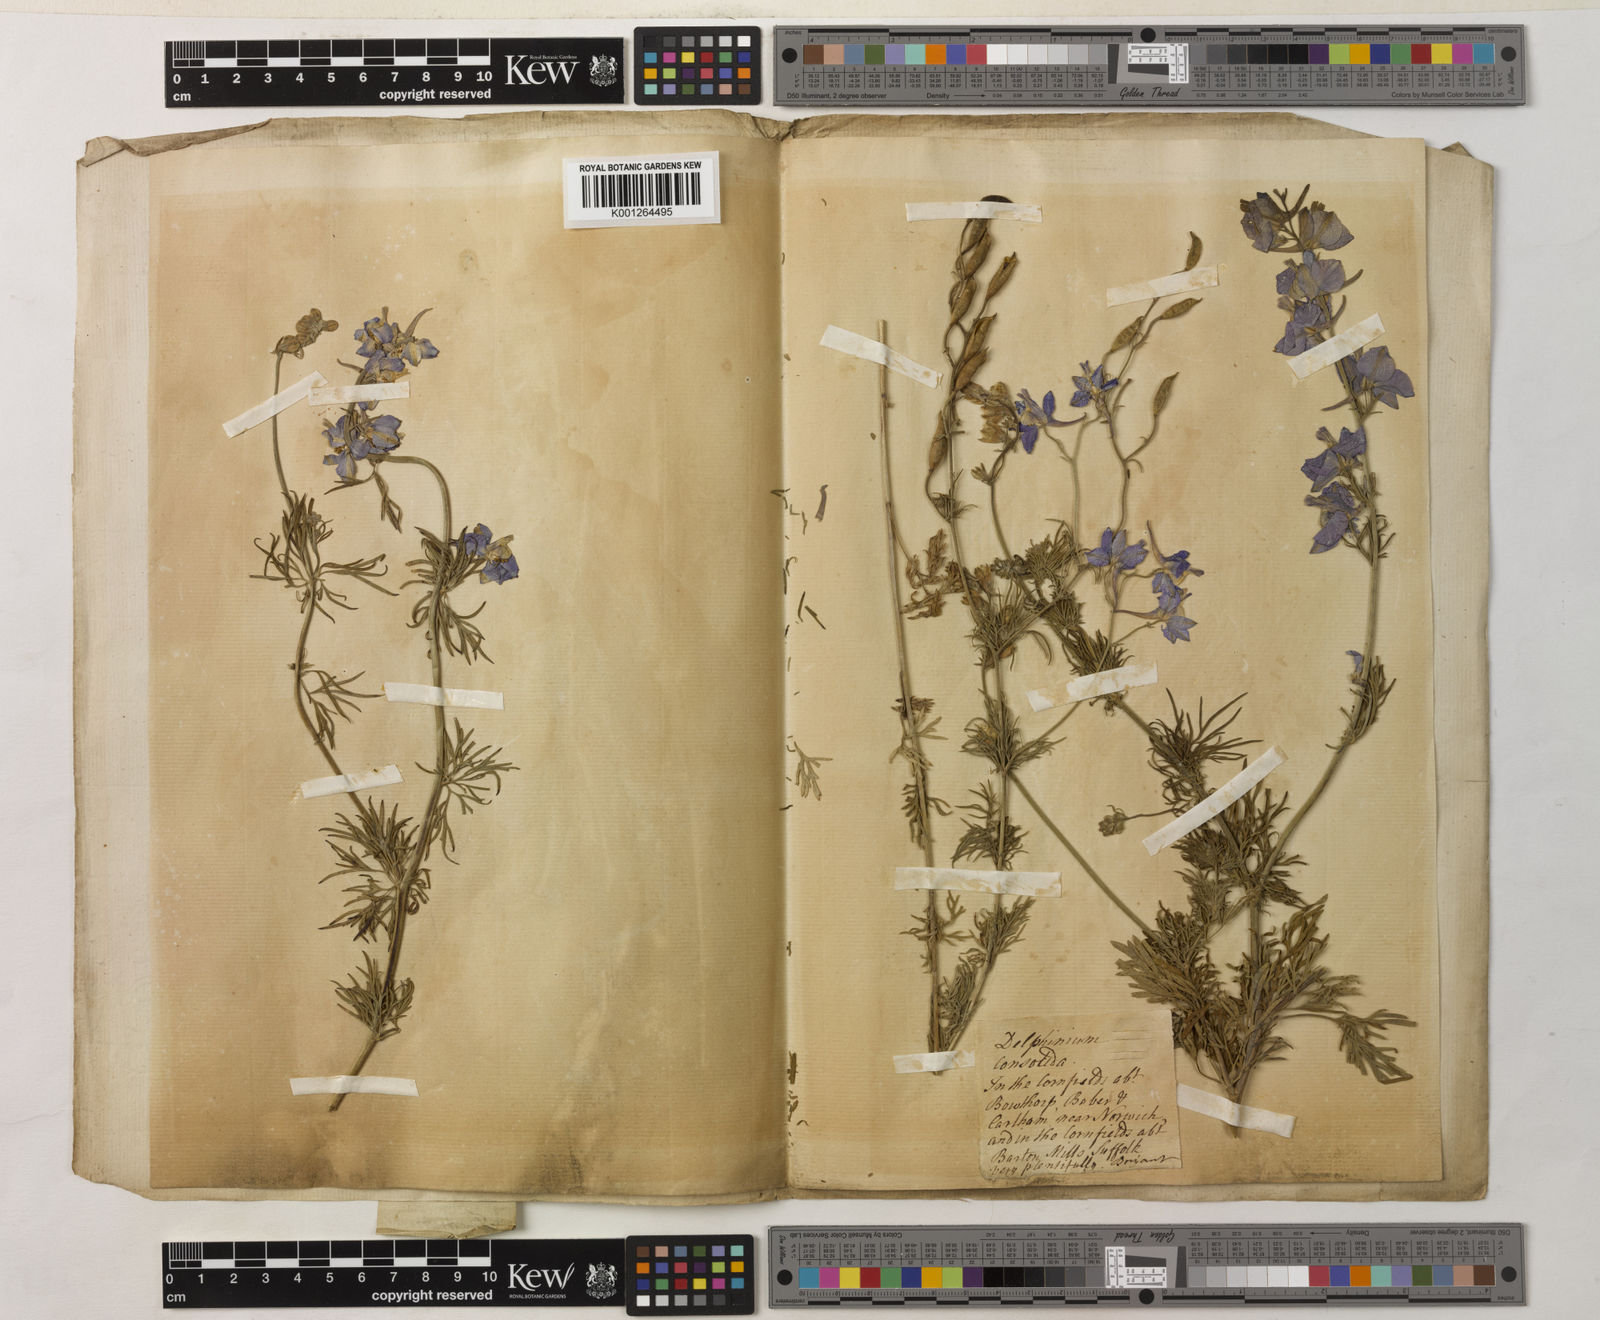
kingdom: Plantae
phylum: Tracheophyta
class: Magnoliopsida
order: Ranunculales
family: Ranunculaceae
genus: Delphinium
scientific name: Delphinium consolida
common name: Branching larkspur
